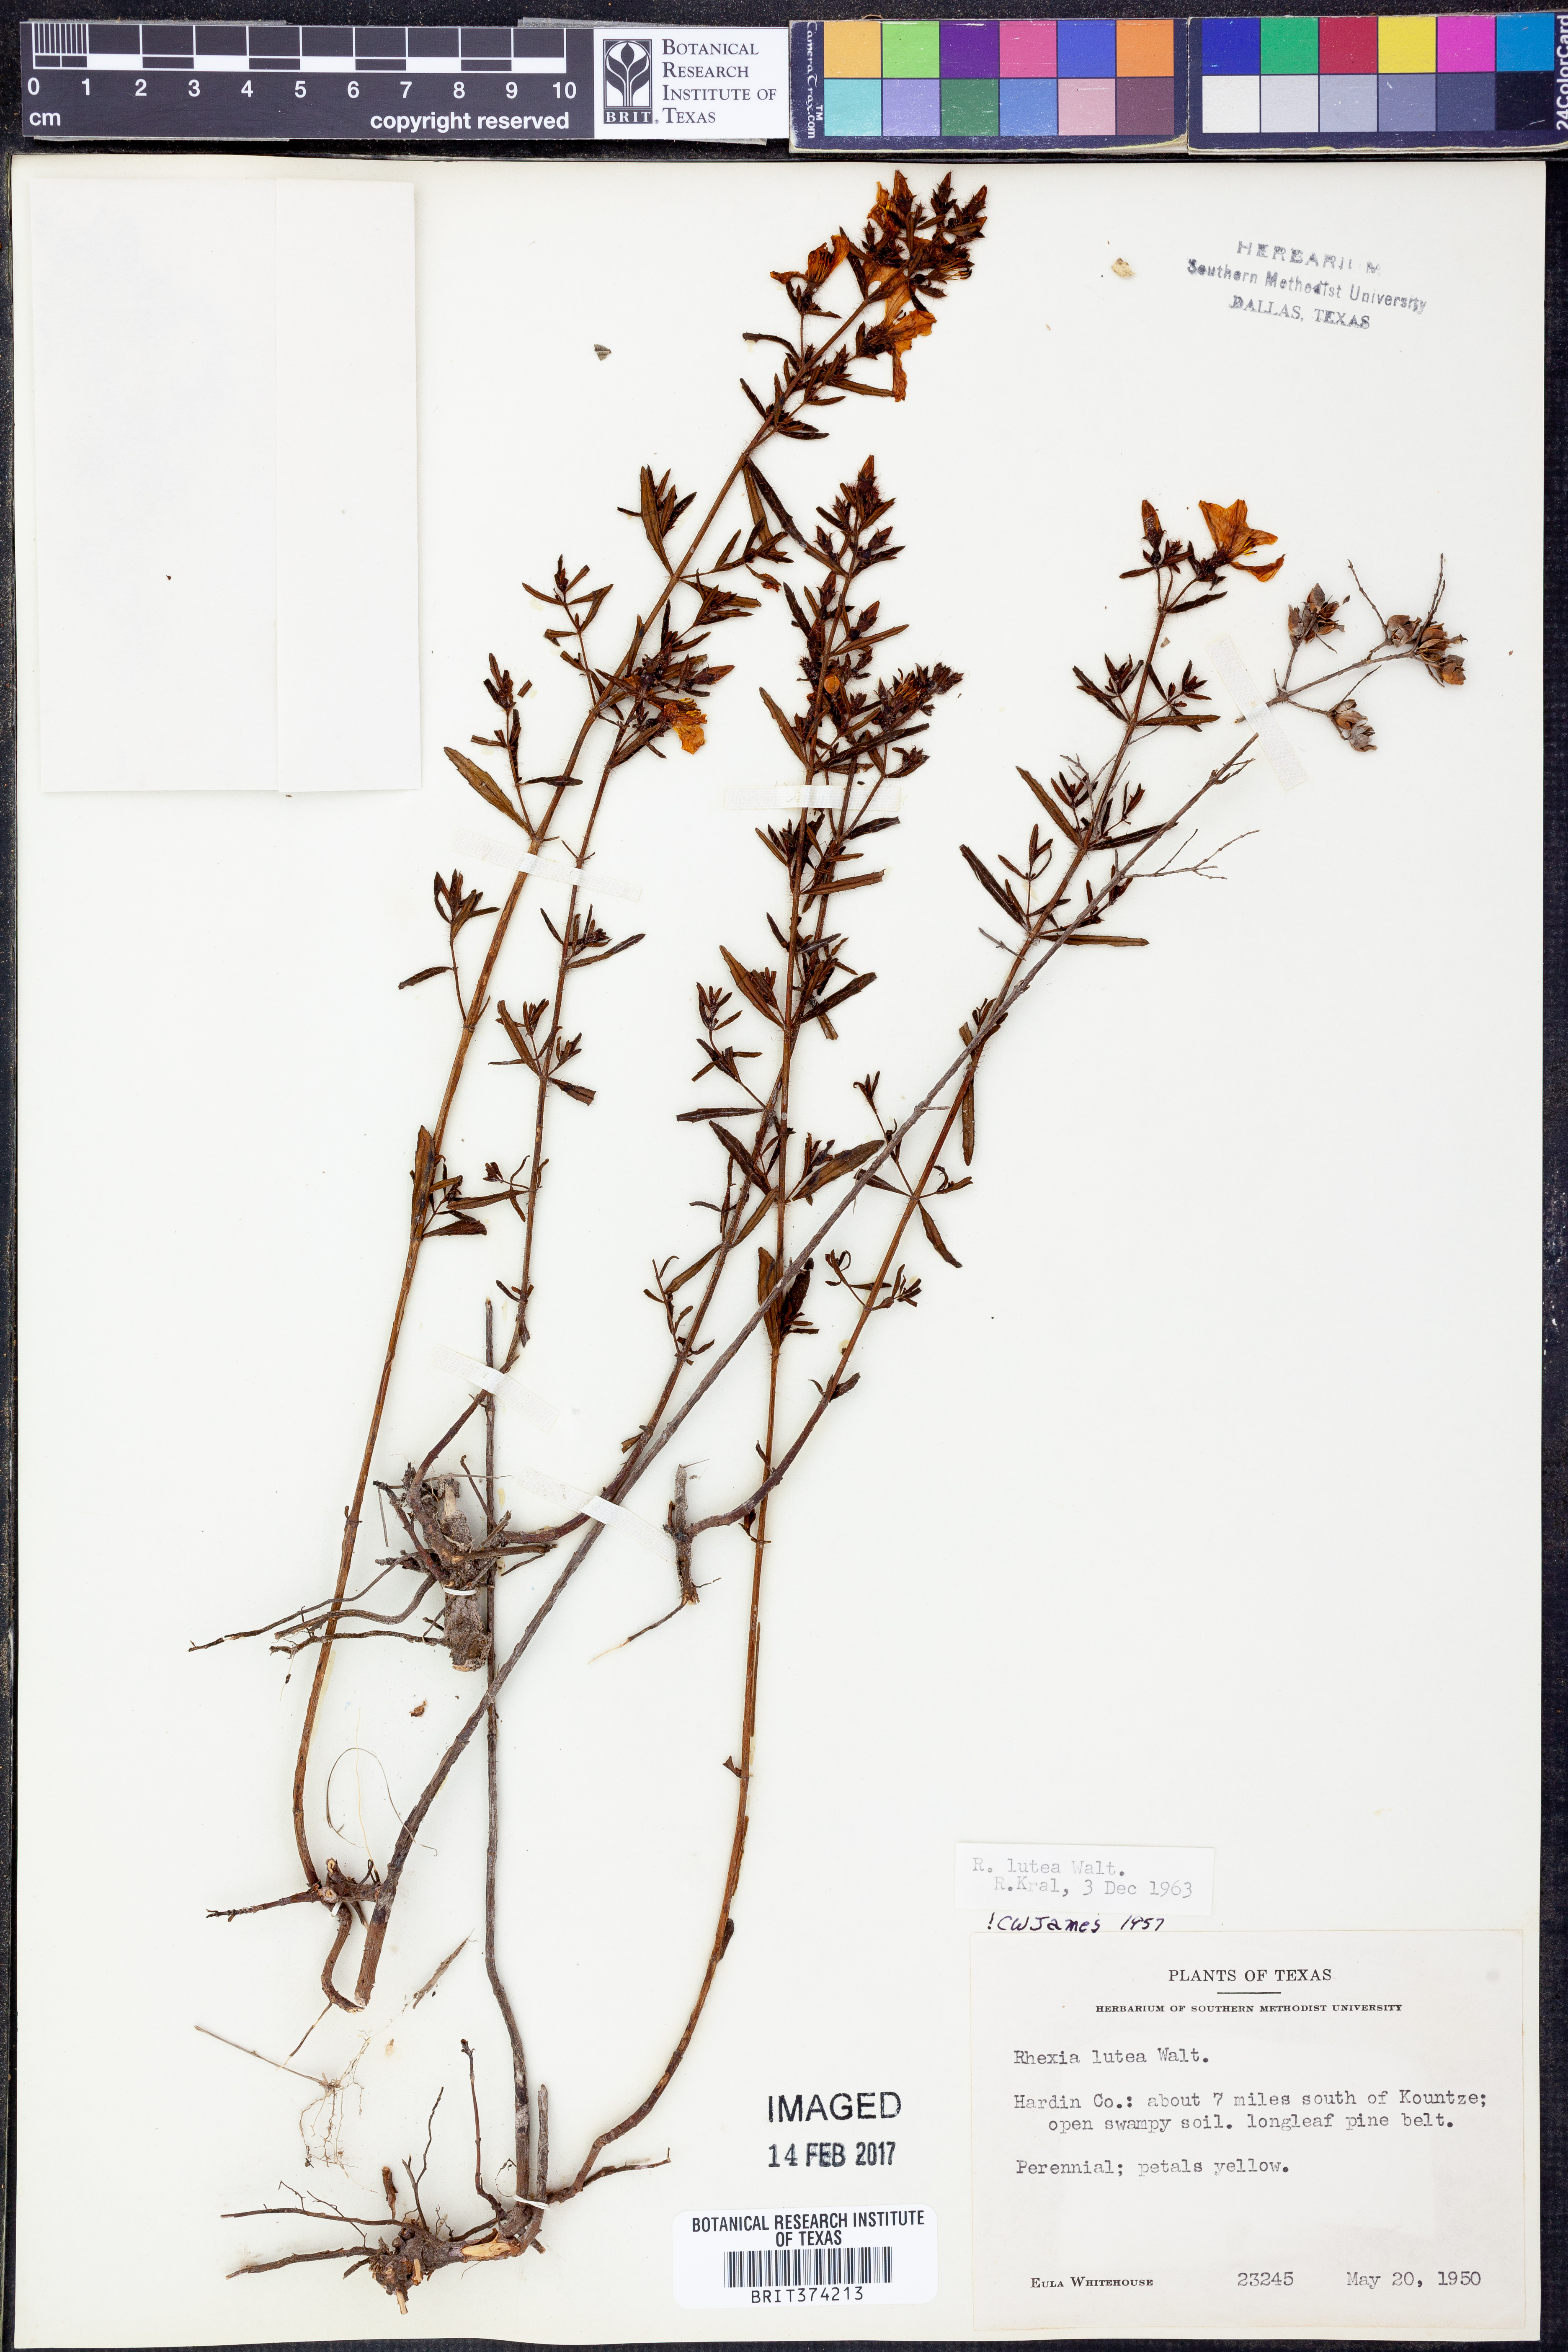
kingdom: Plantae
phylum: Tracheophyta
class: Magnoliopsida
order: Myrtales
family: Melastomataceae
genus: Rhexia
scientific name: Rhexia lutea
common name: Golden meadow-beauty
